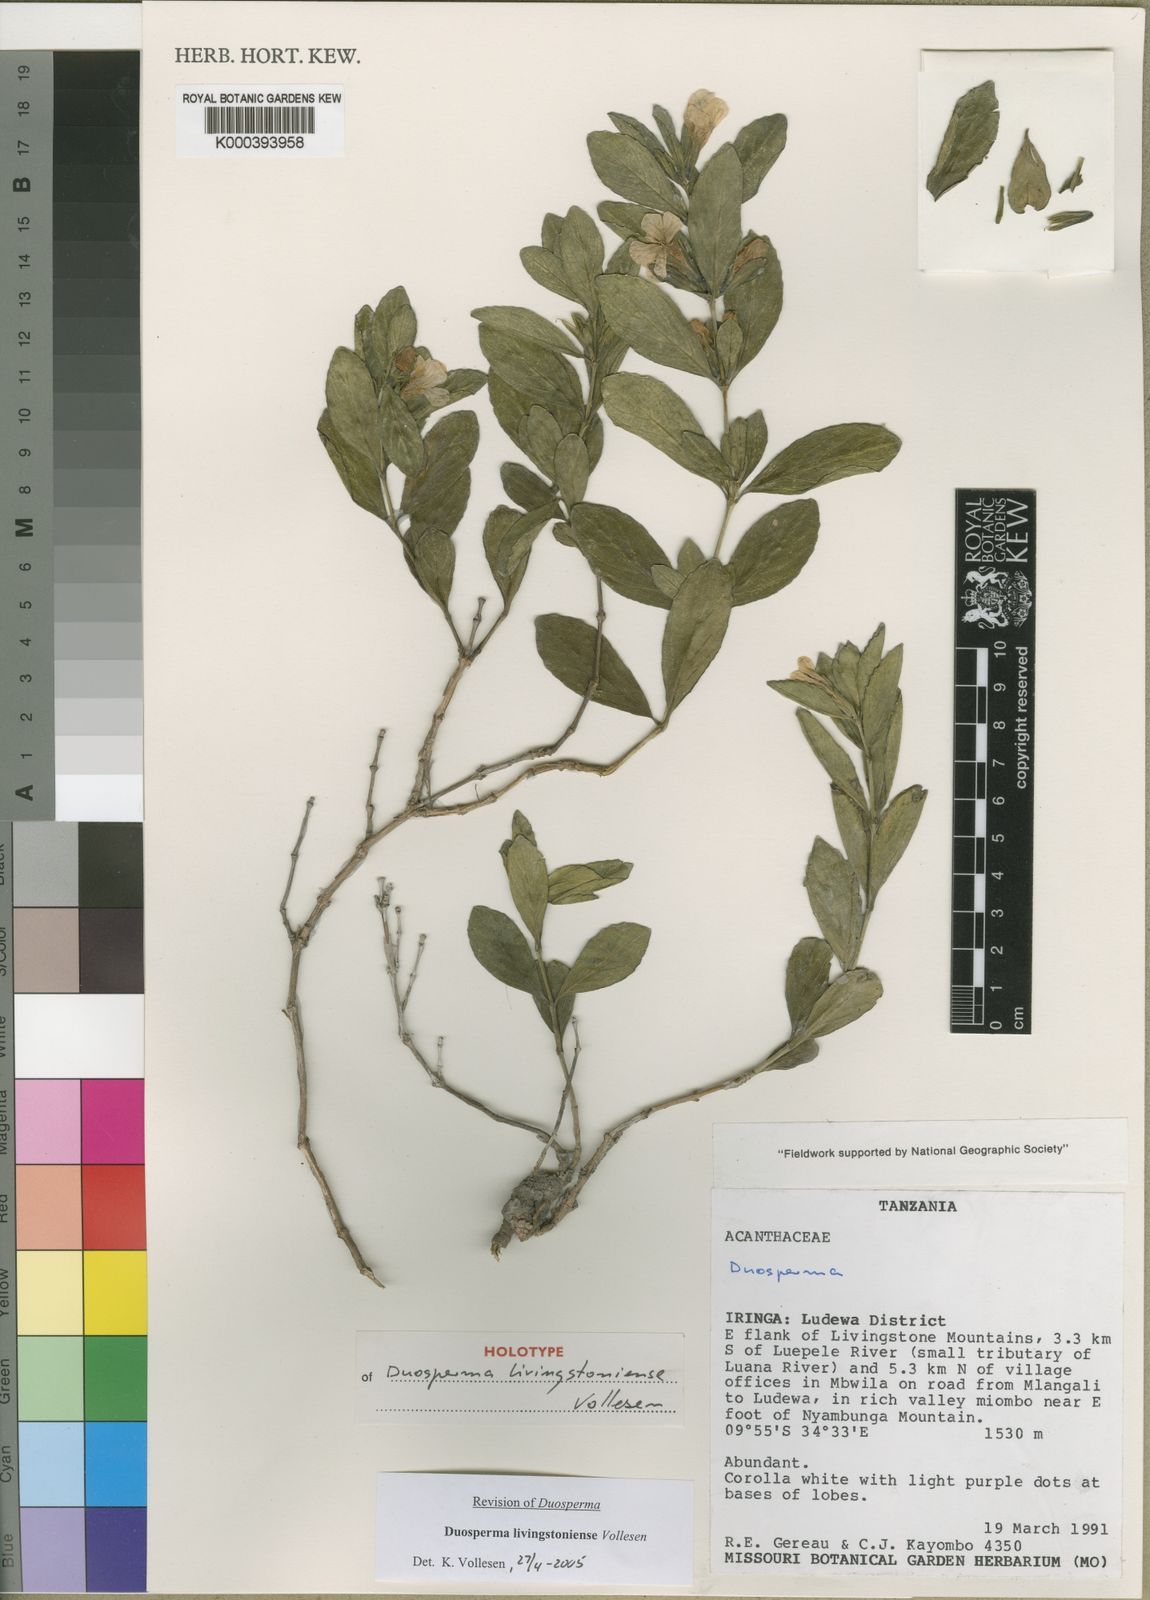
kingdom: Plantae
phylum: Tracheophyta
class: Magnoliopsida
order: Lamiales
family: Acanthaceae
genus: Duosperma
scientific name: Duosperma livingstoniense
